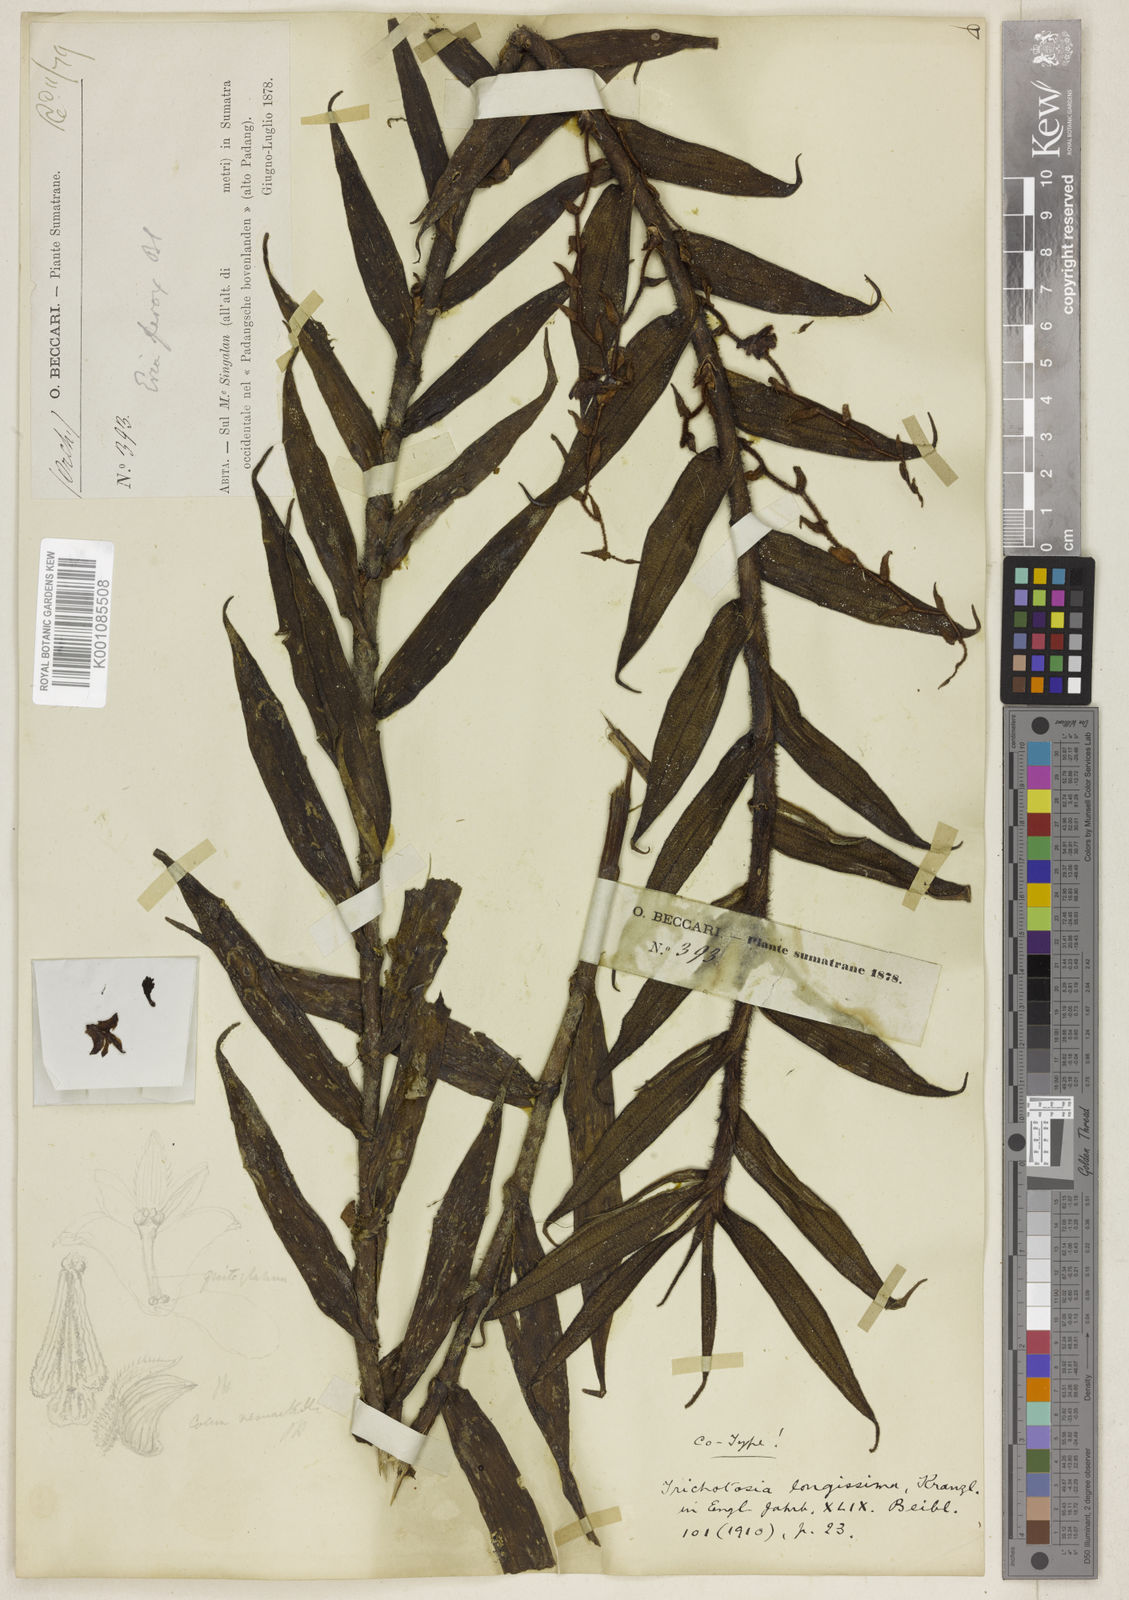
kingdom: Plantae
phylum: Tracheophyta
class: Liliopsida
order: Asparagales
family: Orchidaceae
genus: Trichotosia
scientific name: Trichotosia longissima
